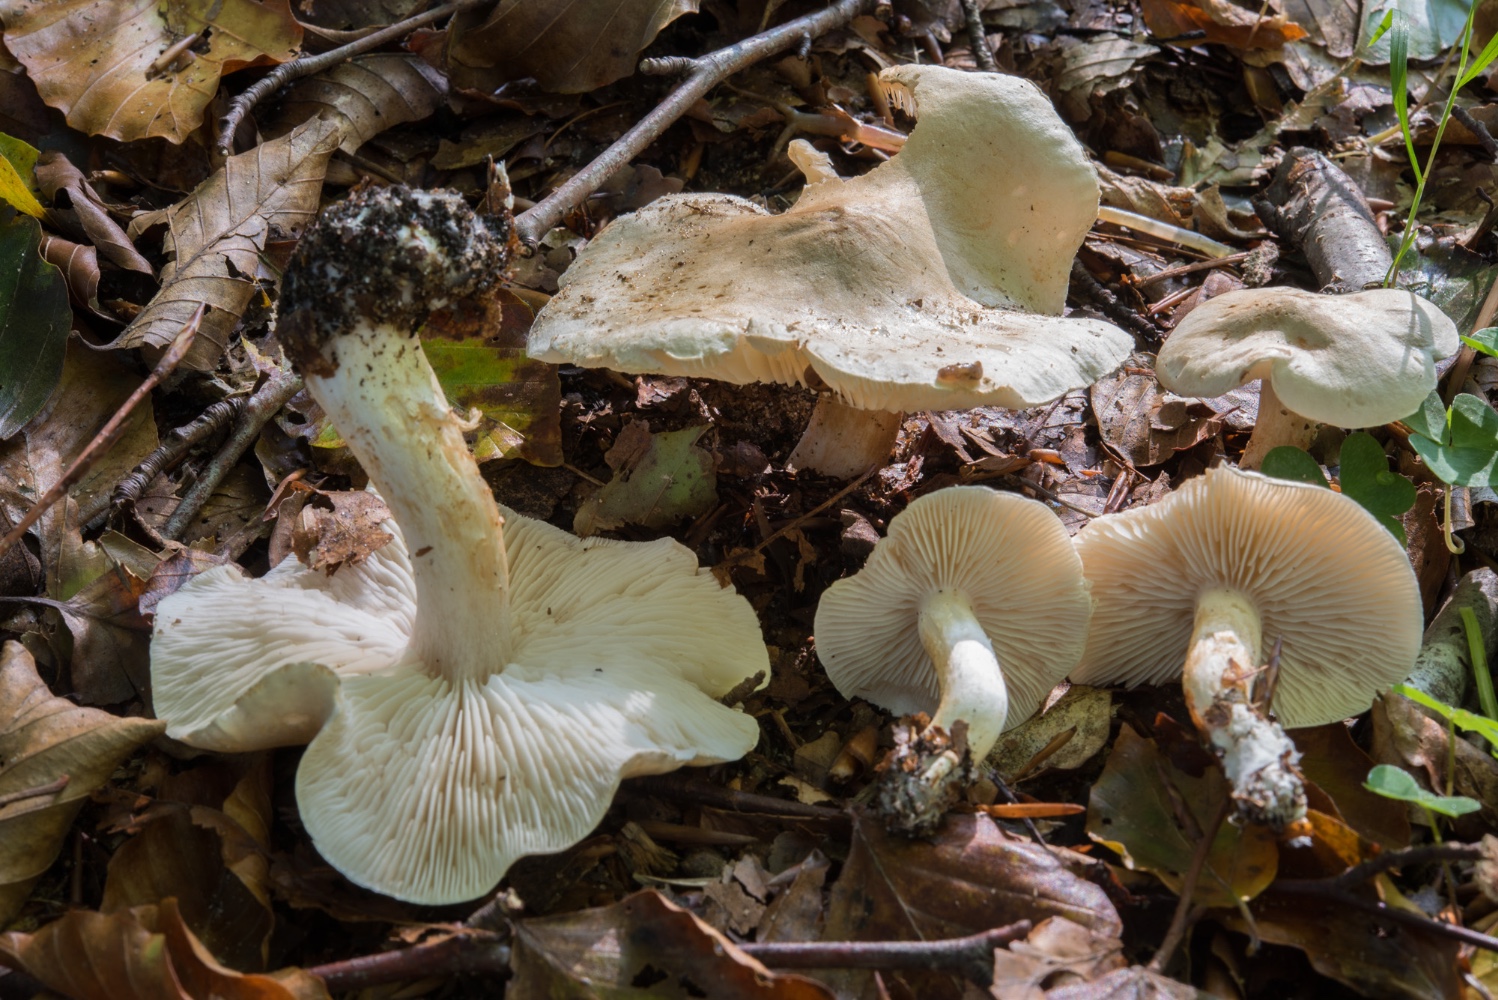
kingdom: Fungi
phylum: Basidiomycota
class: Agaricomycetes
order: Agaricales
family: Tricholomataceae
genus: Tricholoma
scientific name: Tricholoma lascivum
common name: stinkende ridderhat
